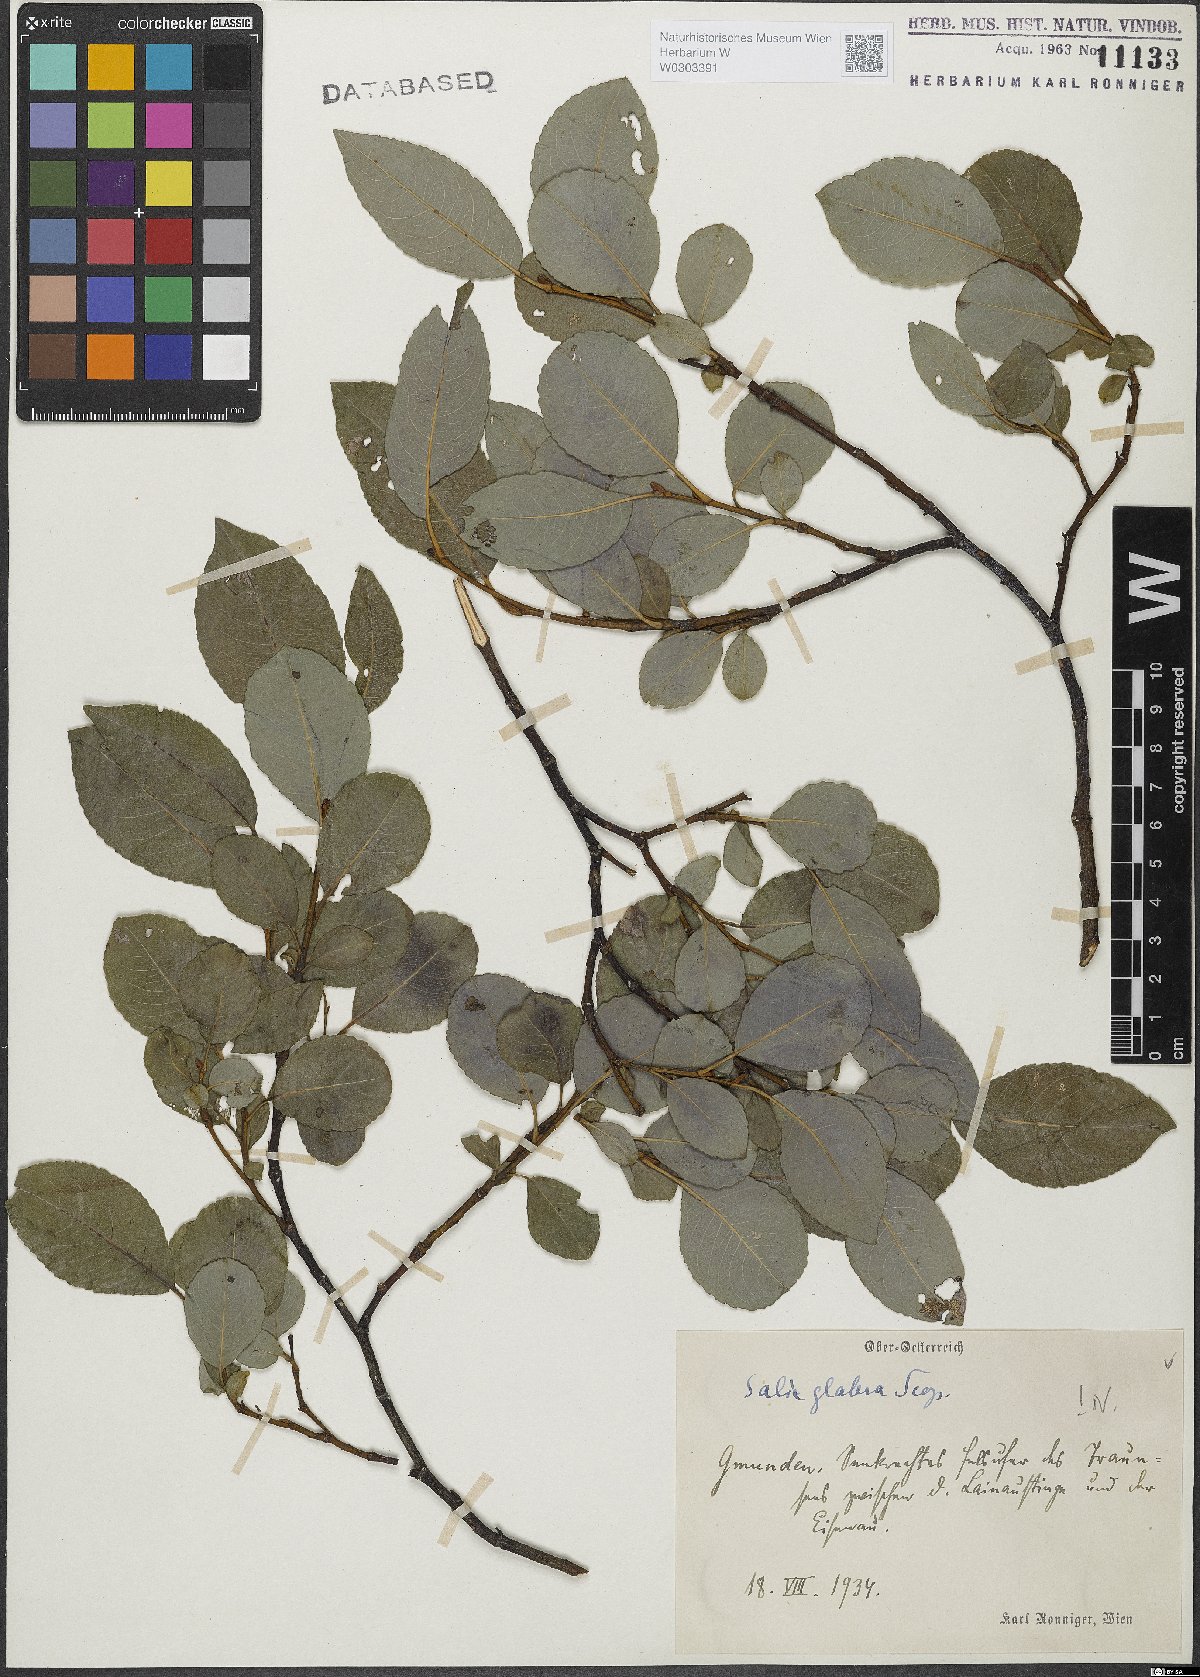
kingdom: Plantae
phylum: Tracheophyta
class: Magnoliopsida
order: Malpighiales
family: Salicaceae
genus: Salix
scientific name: Salix glabra
